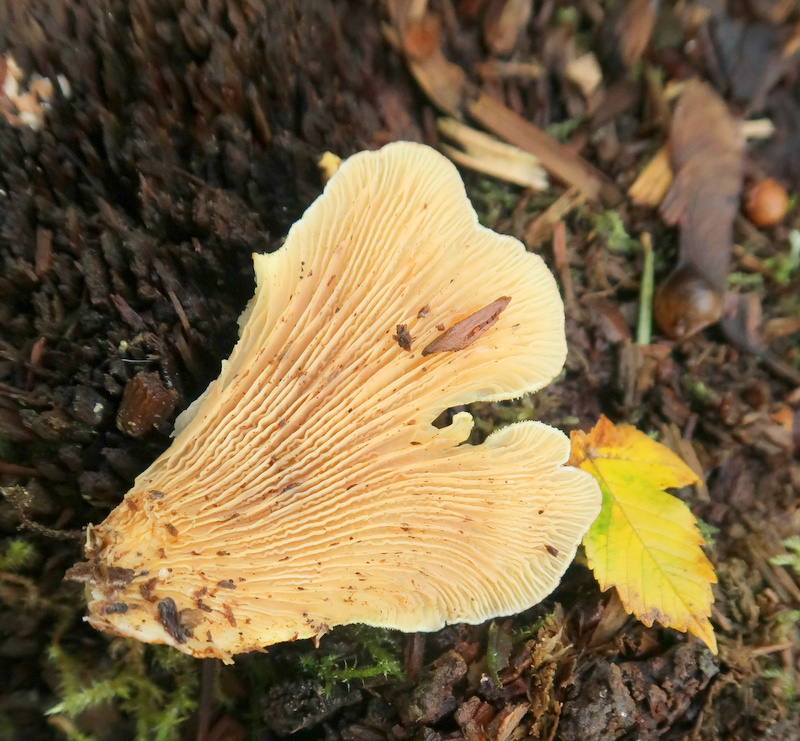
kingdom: Fungi
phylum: Basidiomycota
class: Agaricomycetes
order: Boletales
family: Tapinellaceae
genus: Tapinella
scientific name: Tapinella panuoides
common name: tømmer-viftesvamp
